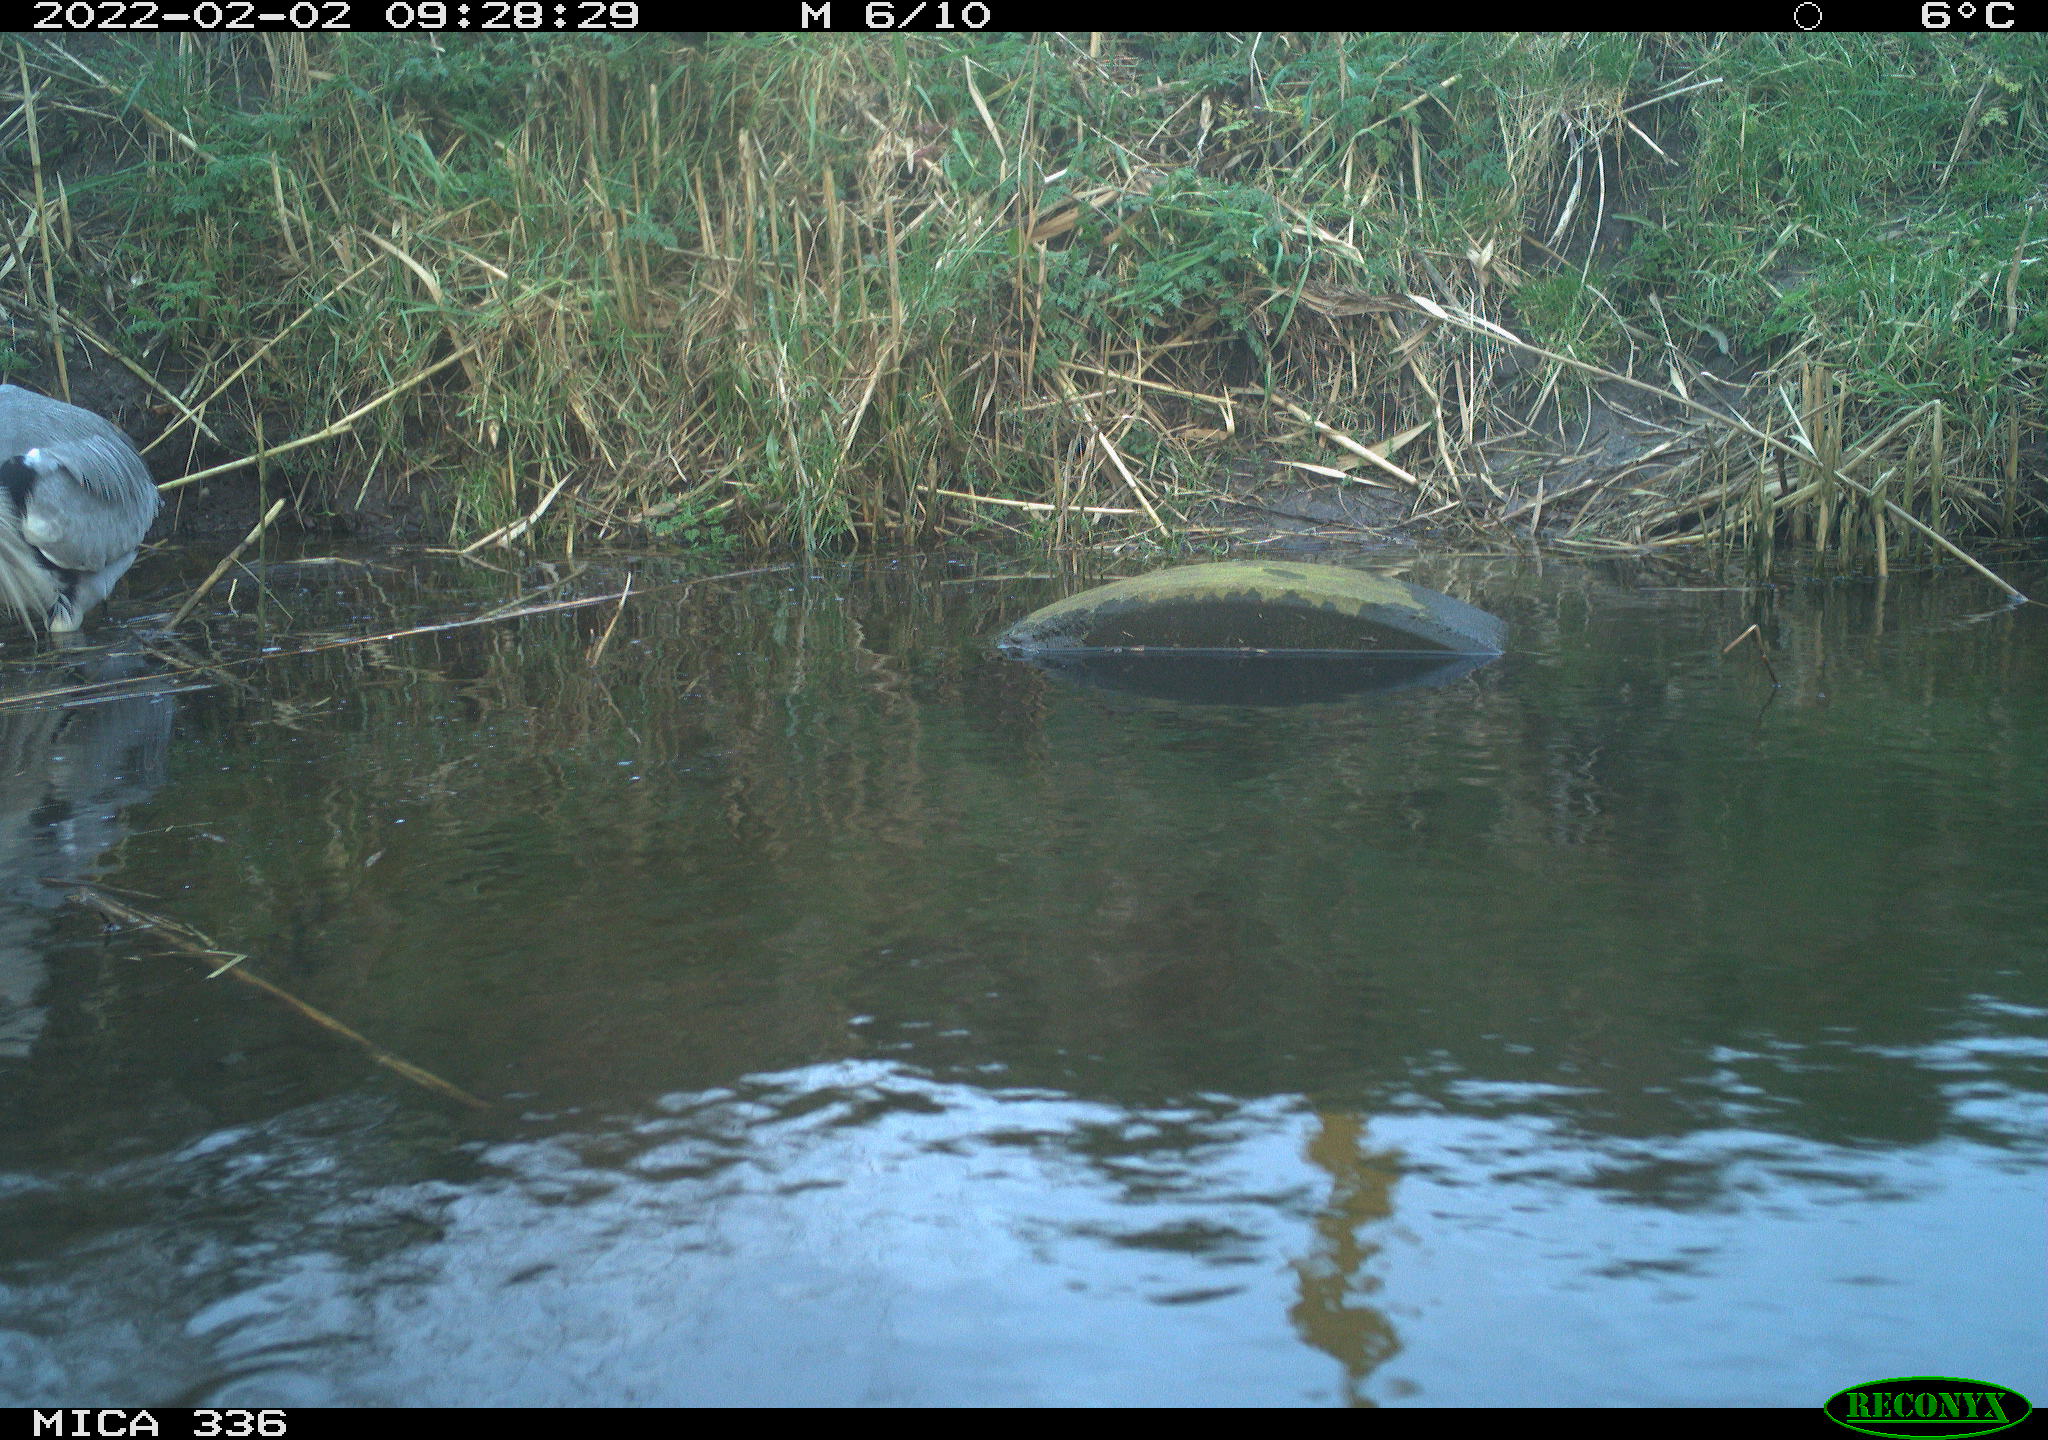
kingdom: Animalia
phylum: Chordata
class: Aves
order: Pelecaniformes
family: Ardeidae
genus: Ardea
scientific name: Ardea cinerea
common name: Grey heron
